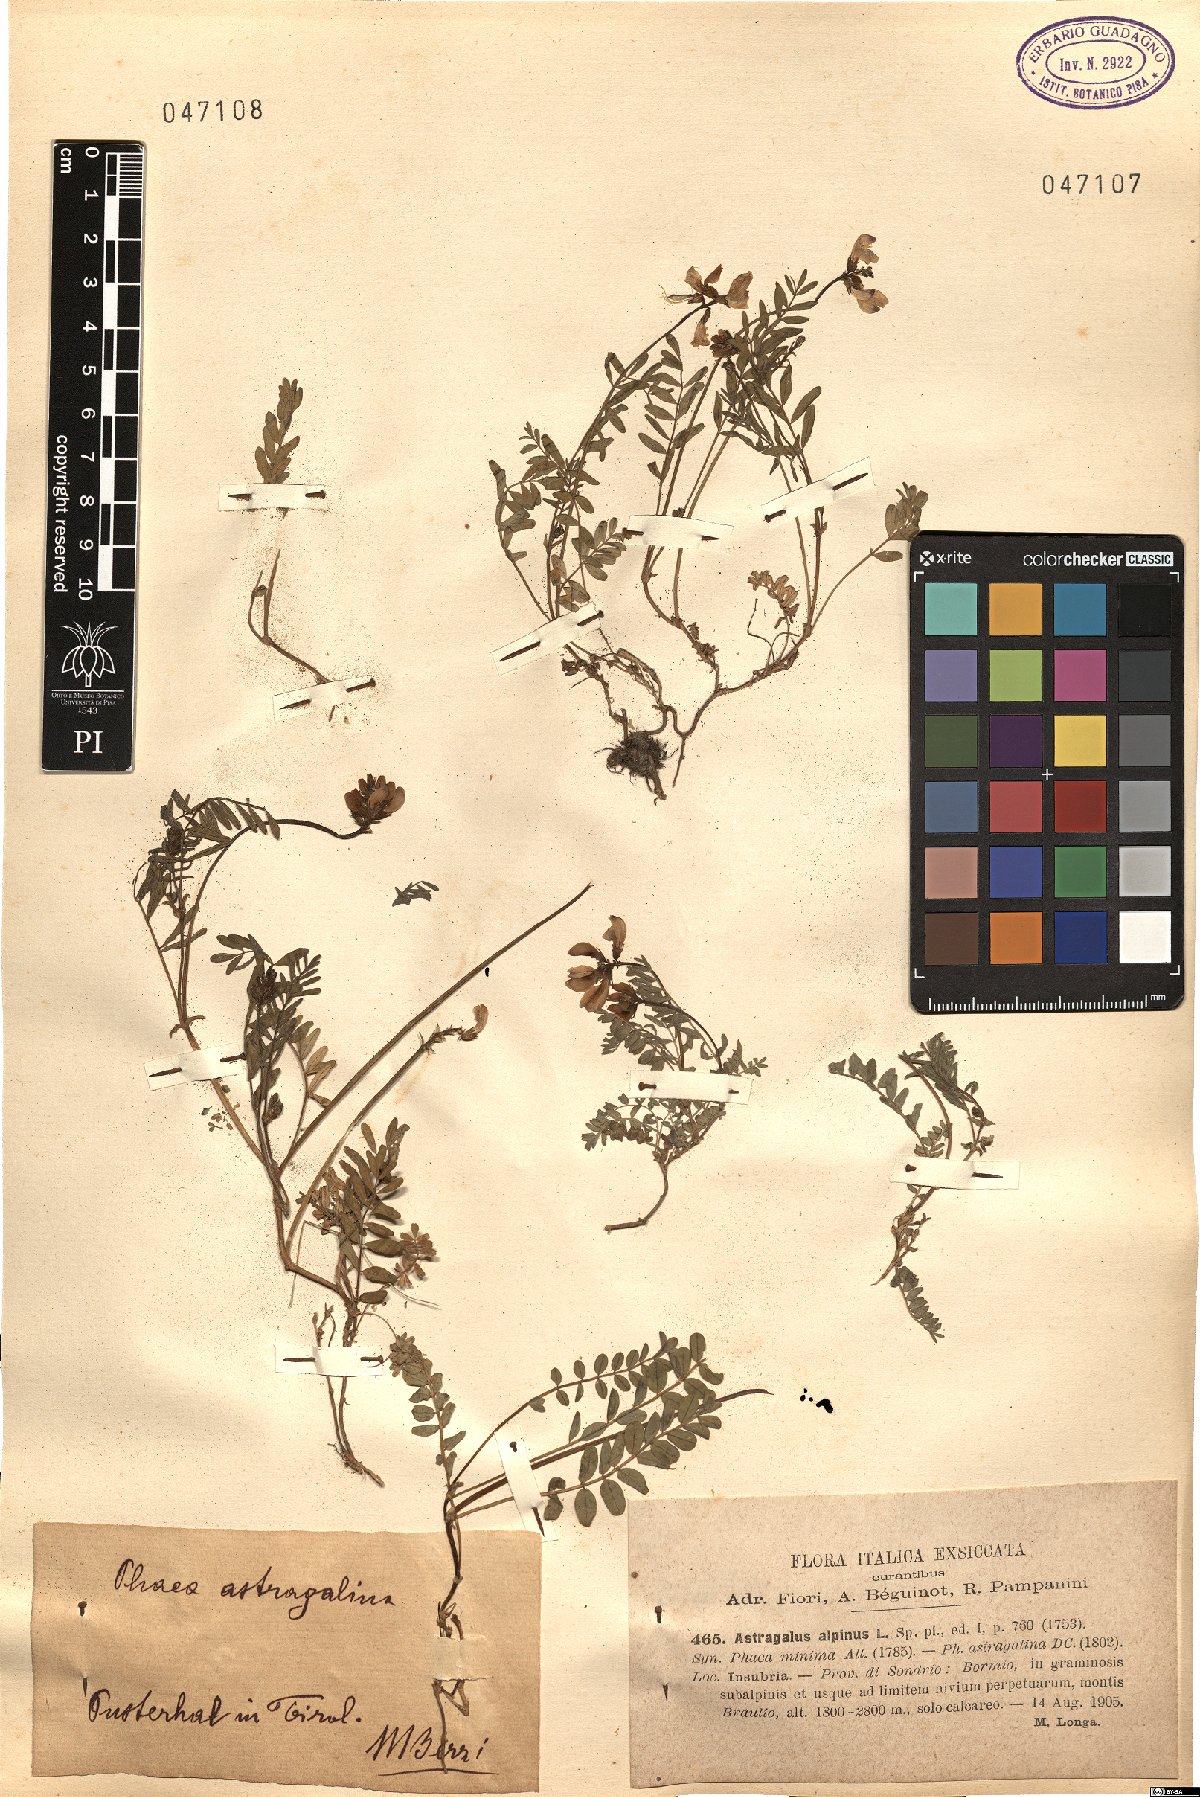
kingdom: Plantae
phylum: Tracheophyta
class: Magnoliopsida
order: Fabales
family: Fabaceae
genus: Astragalus
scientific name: Astragalus alpinus
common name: Alpine milk-vetch
